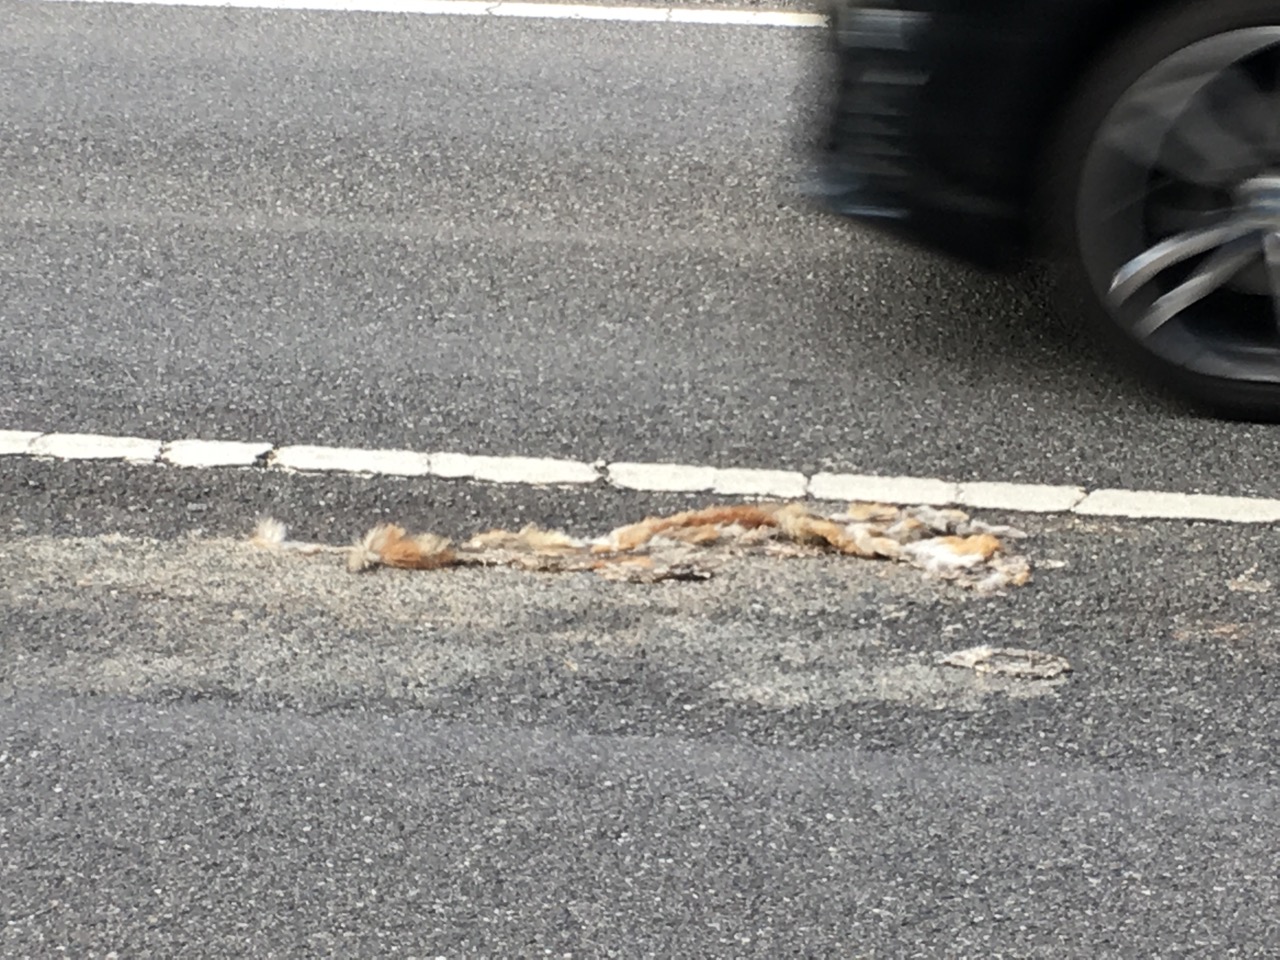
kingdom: Animalia
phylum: Chordata
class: Mammalia
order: Carnivora
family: Canidae
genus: Vulpes
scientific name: Vulpes vulpes
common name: Red fox
